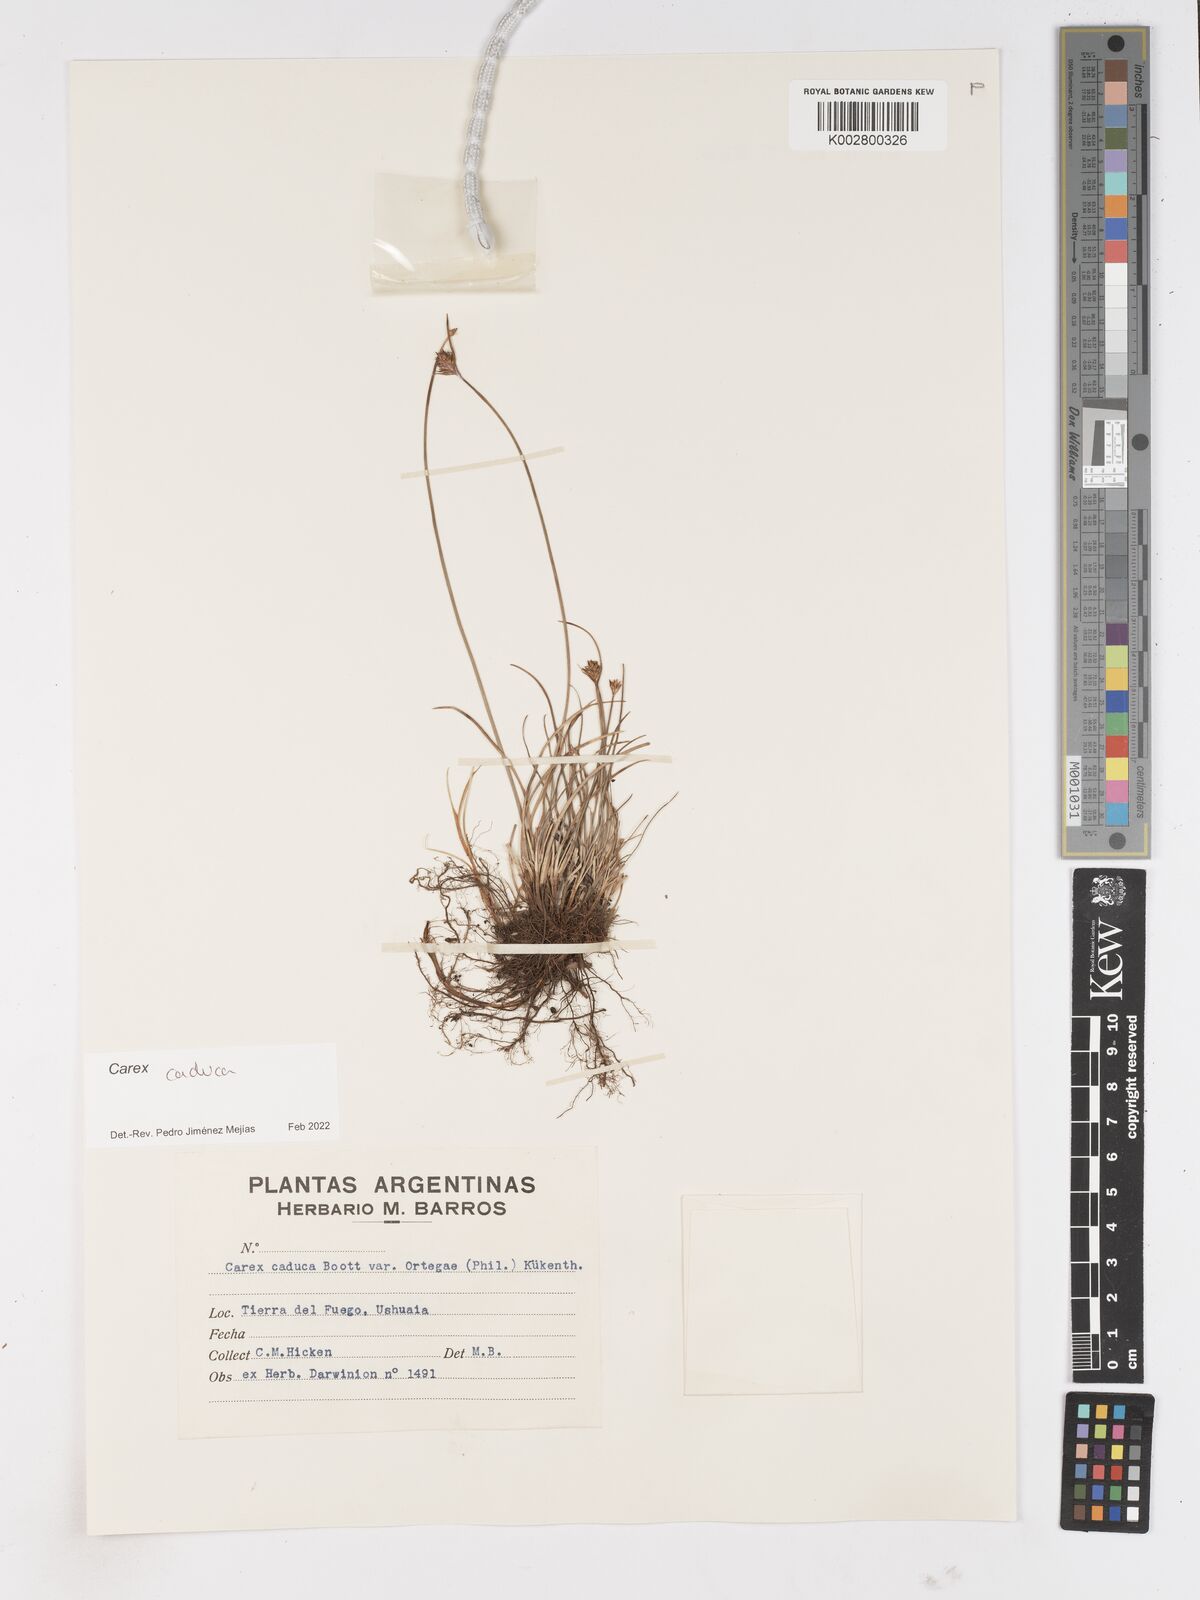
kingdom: Plantae
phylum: Tracheophyta
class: Liliopsida
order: Poales
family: Cyperaceae
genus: Carex
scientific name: Carex caduca
